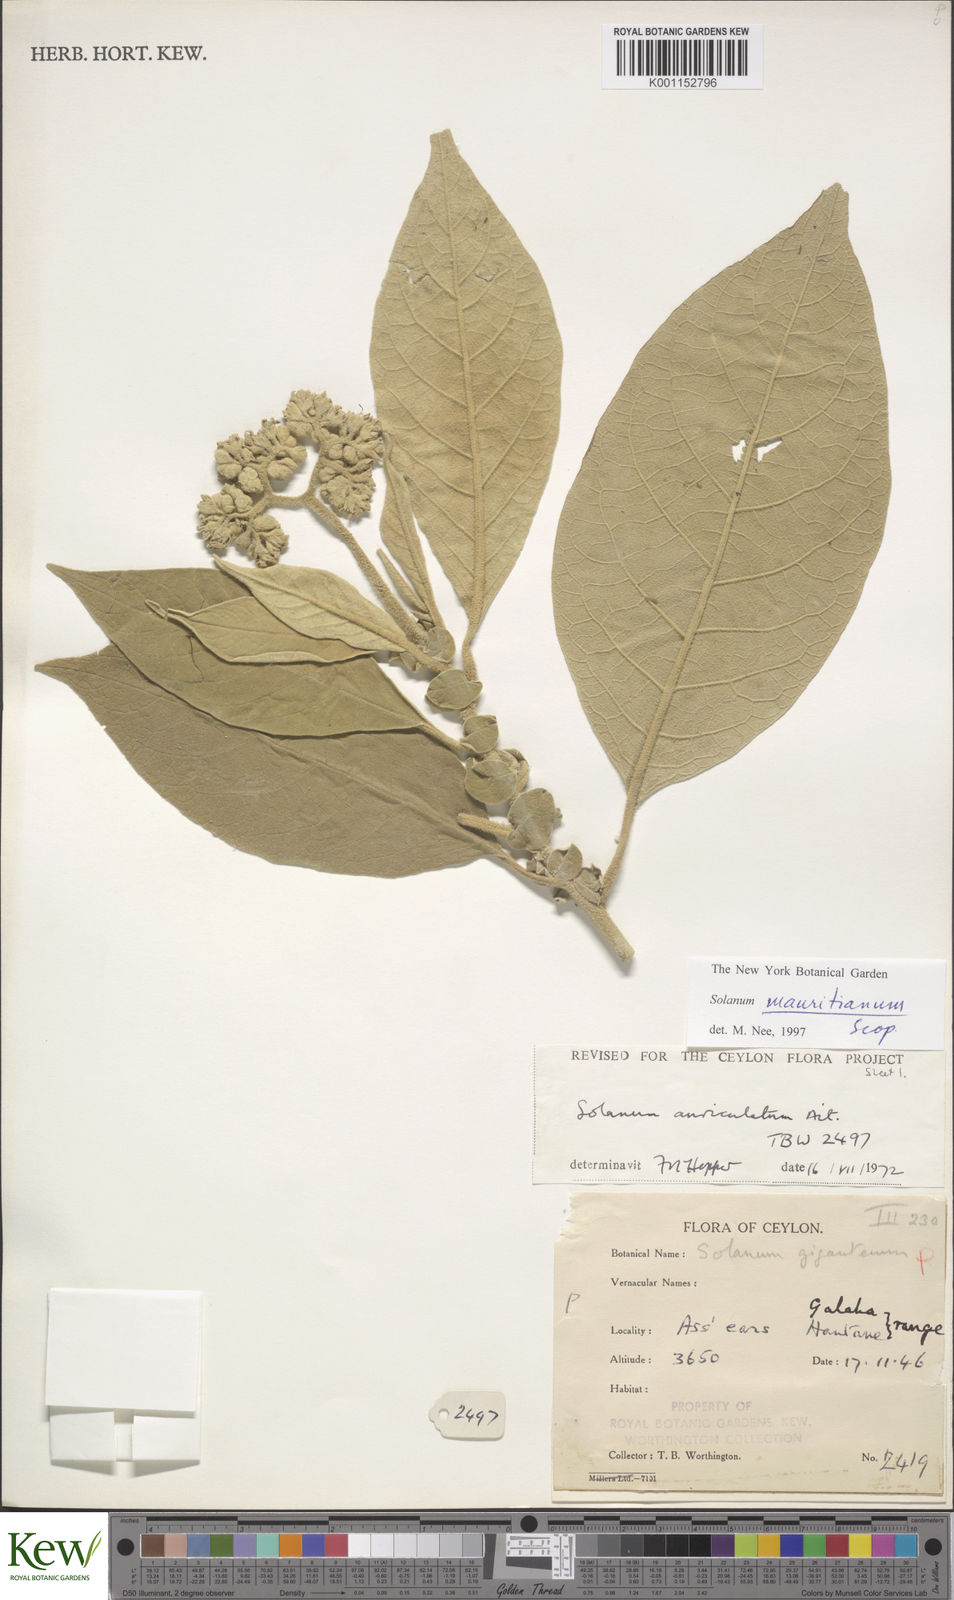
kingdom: Plantae
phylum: Tracheophyta
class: Magnoliopsida
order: Solanales
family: Solanaceae
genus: Solanum
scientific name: Solanum mauritianum
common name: Earleaf nightshade
